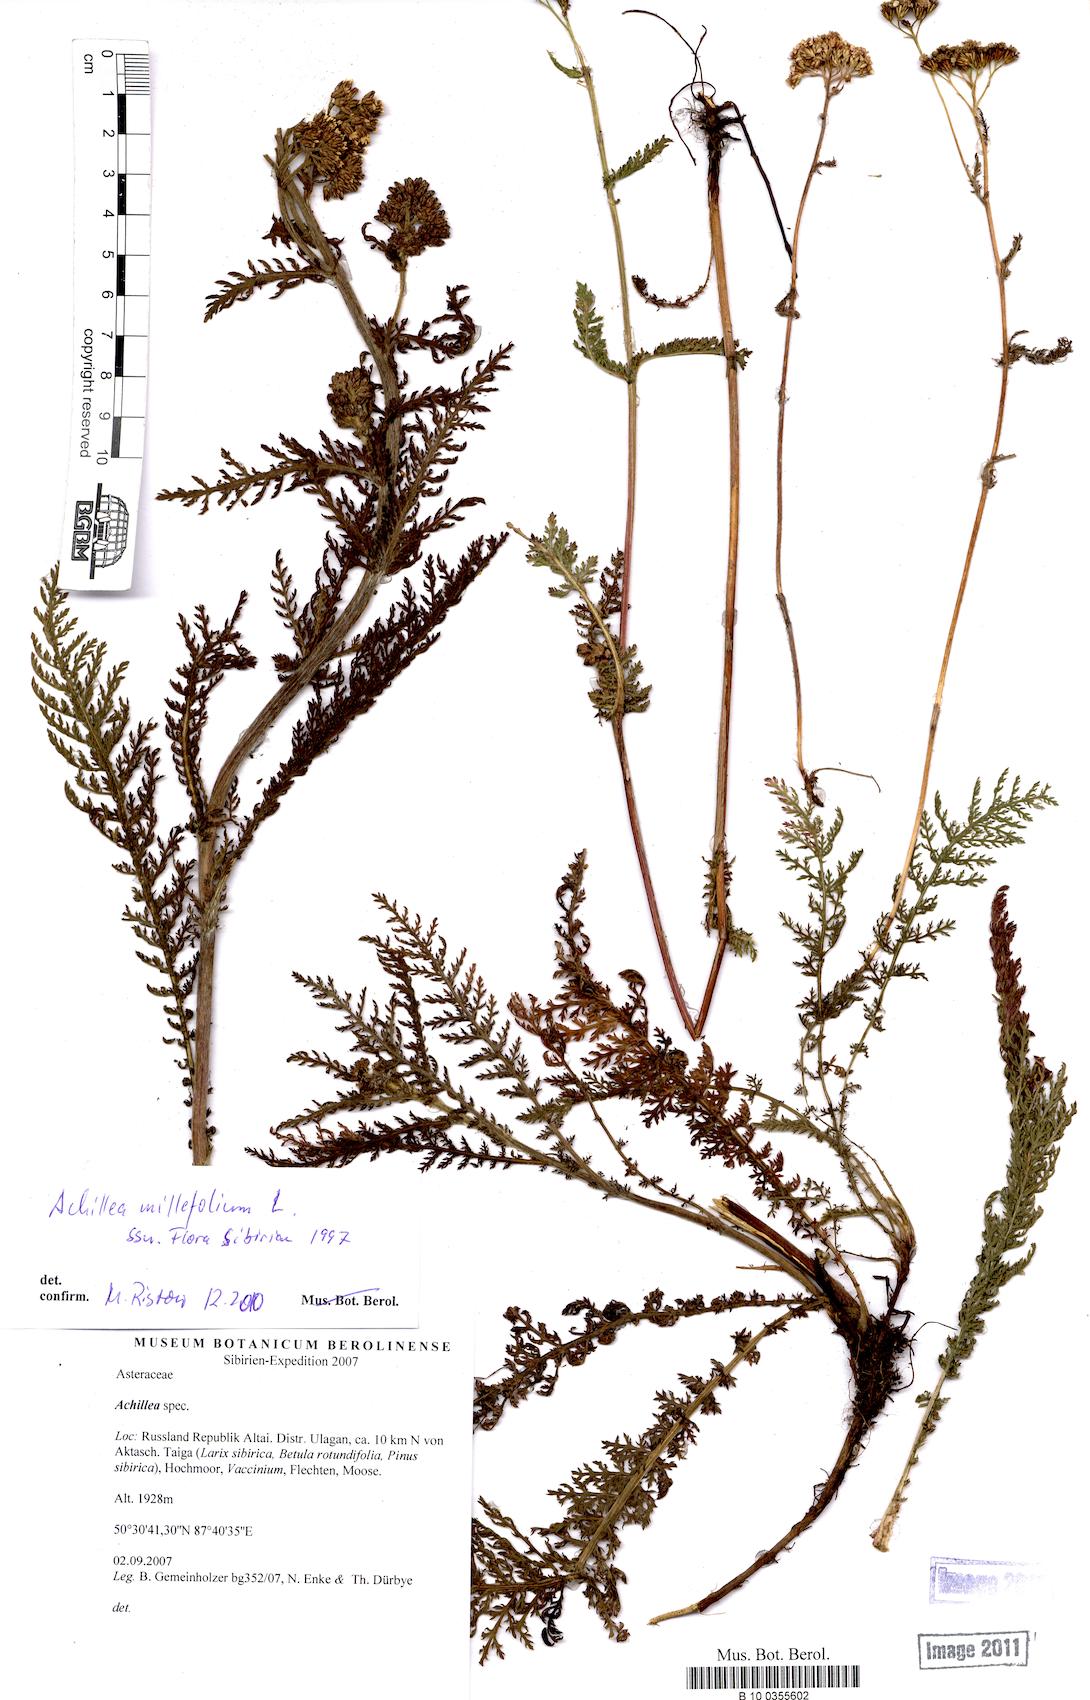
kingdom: Plantae
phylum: Tracheophyta
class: Magnoliopsida
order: Asterales
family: Asteraceae
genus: Achillea
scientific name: Achillea millefolium
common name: Yarrow
